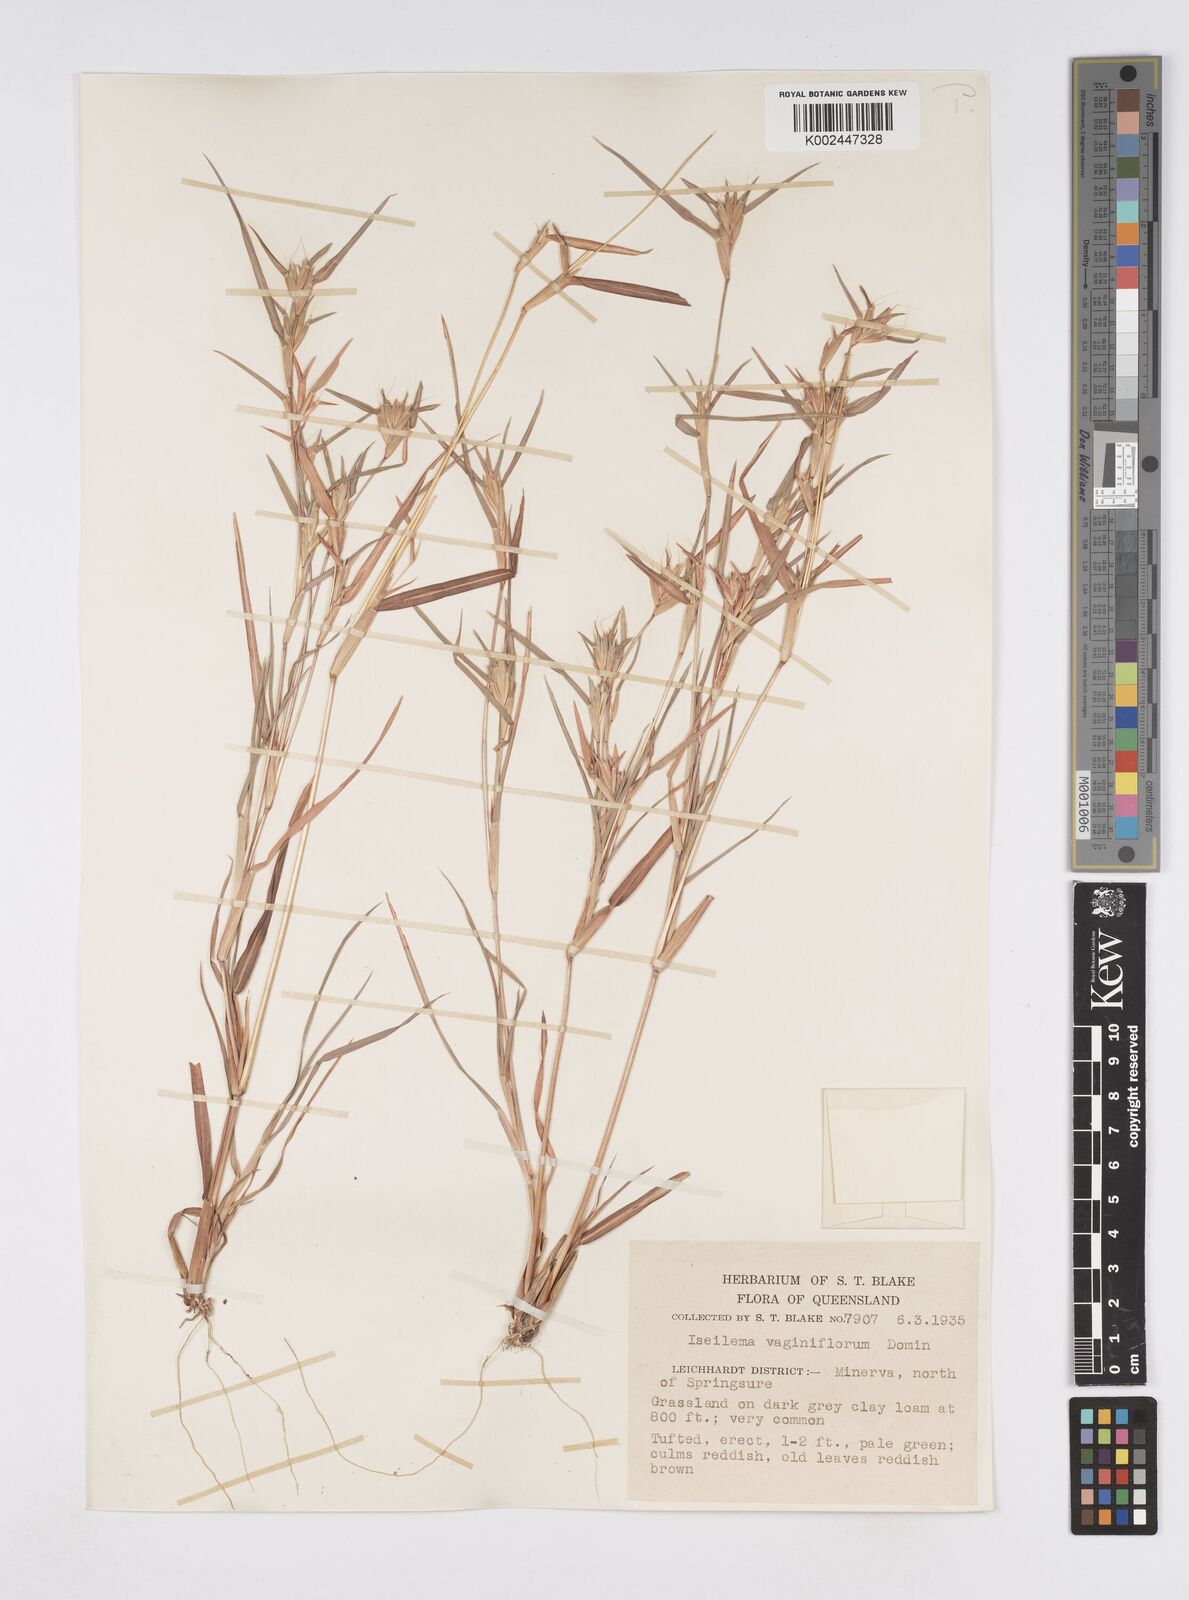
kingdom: Plantae
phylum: Tracheophyta
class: Liliopsida
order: Poales
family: Poaceae
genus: Iseilema
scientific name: Iseilema vaginiflorum
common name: Red flinders grass
